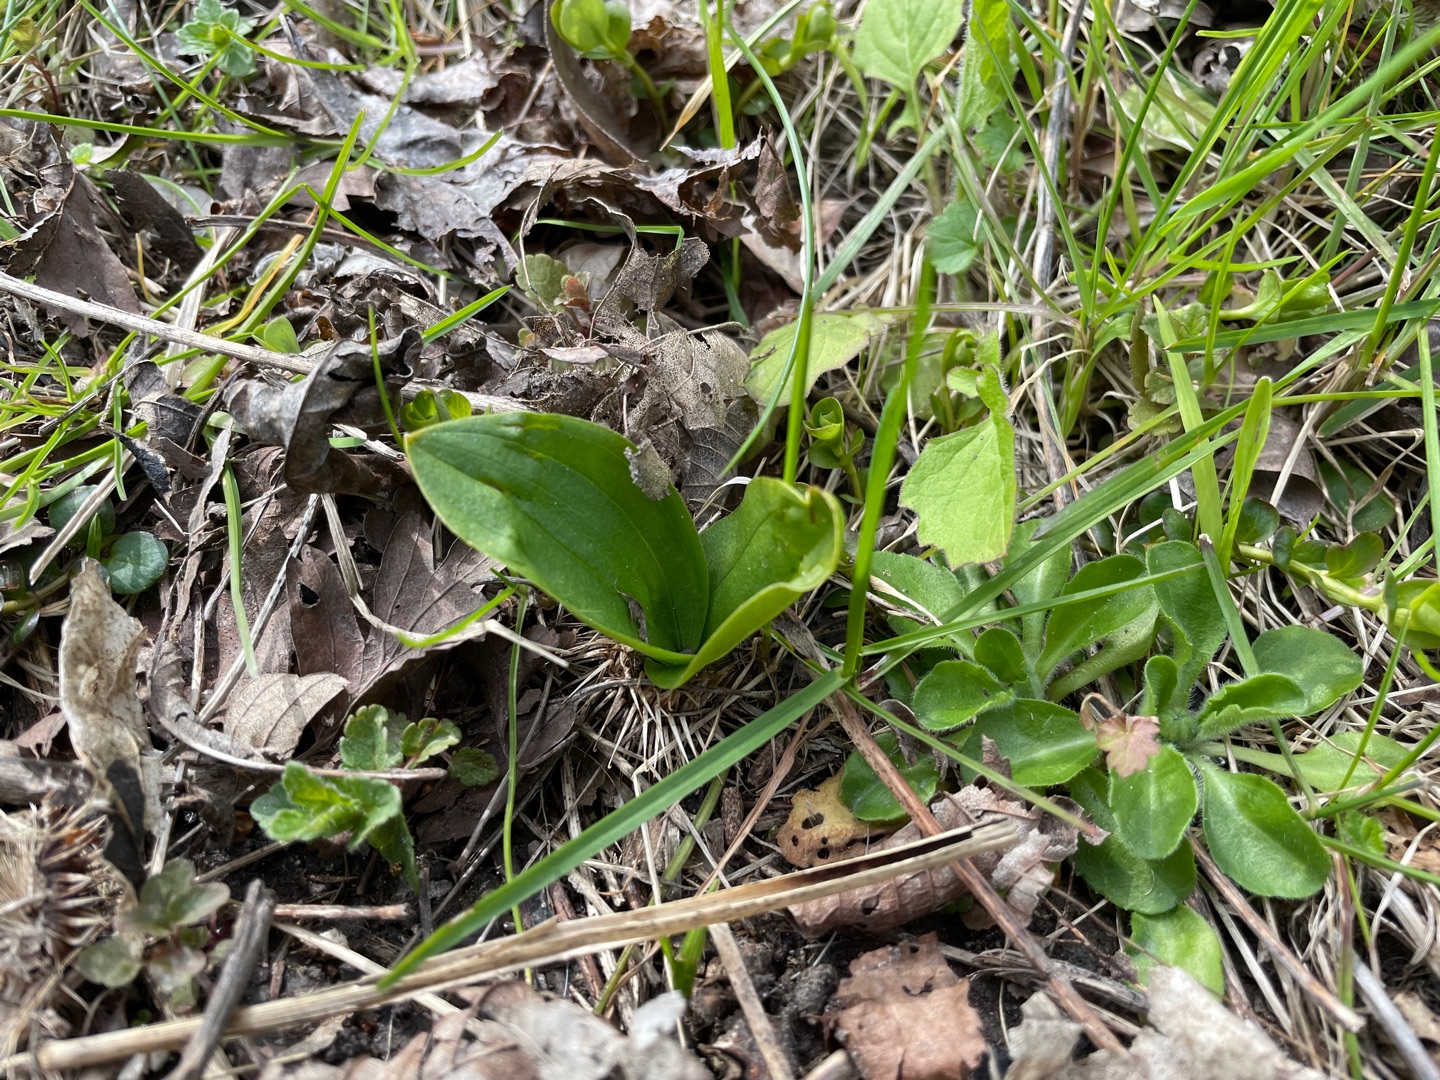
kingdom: Plantae
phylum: Tracheophyta
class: Liliopsida
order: Asparagales
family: Orchidaceae
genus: Neottia
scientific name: Neottia ovata
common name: Ægbladet fliglæbe
